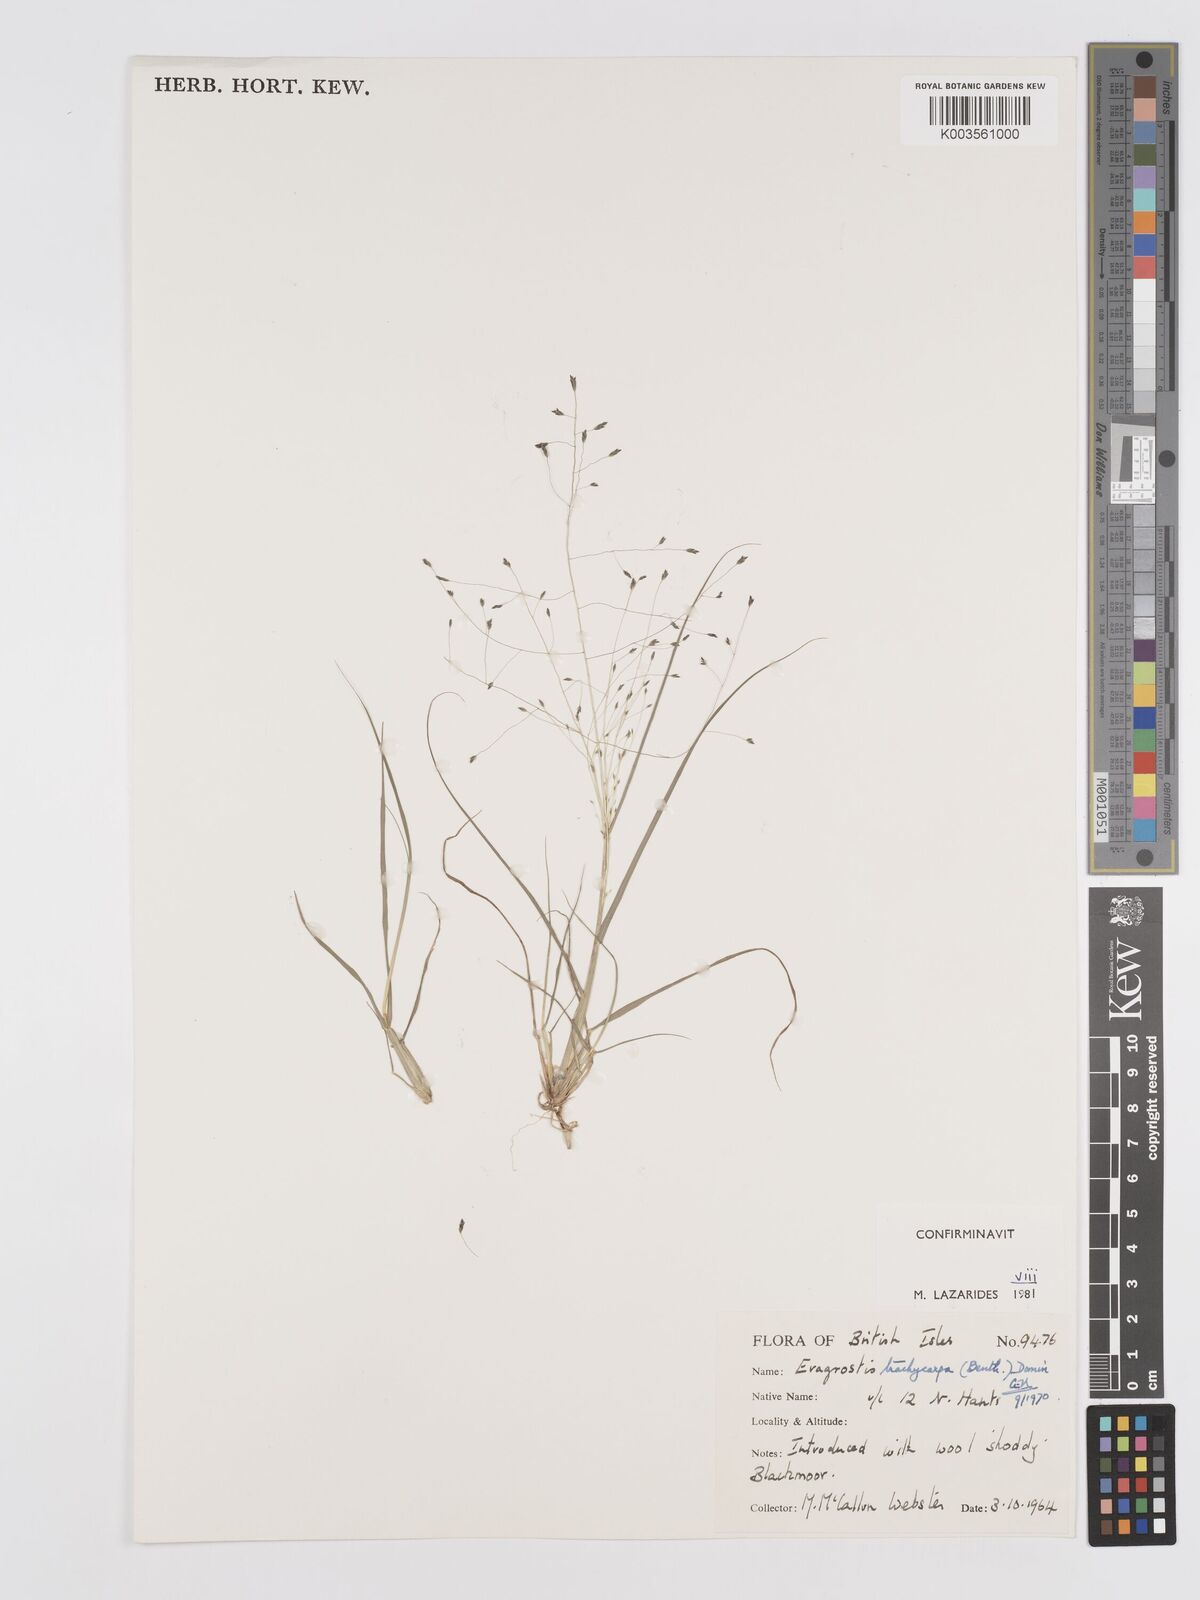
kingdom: Plantae
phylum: Tracheophyta
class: Liliopsida
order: Poales
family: Poaceae
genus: Eragrostis
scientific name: Eragrostis trachycarpa
